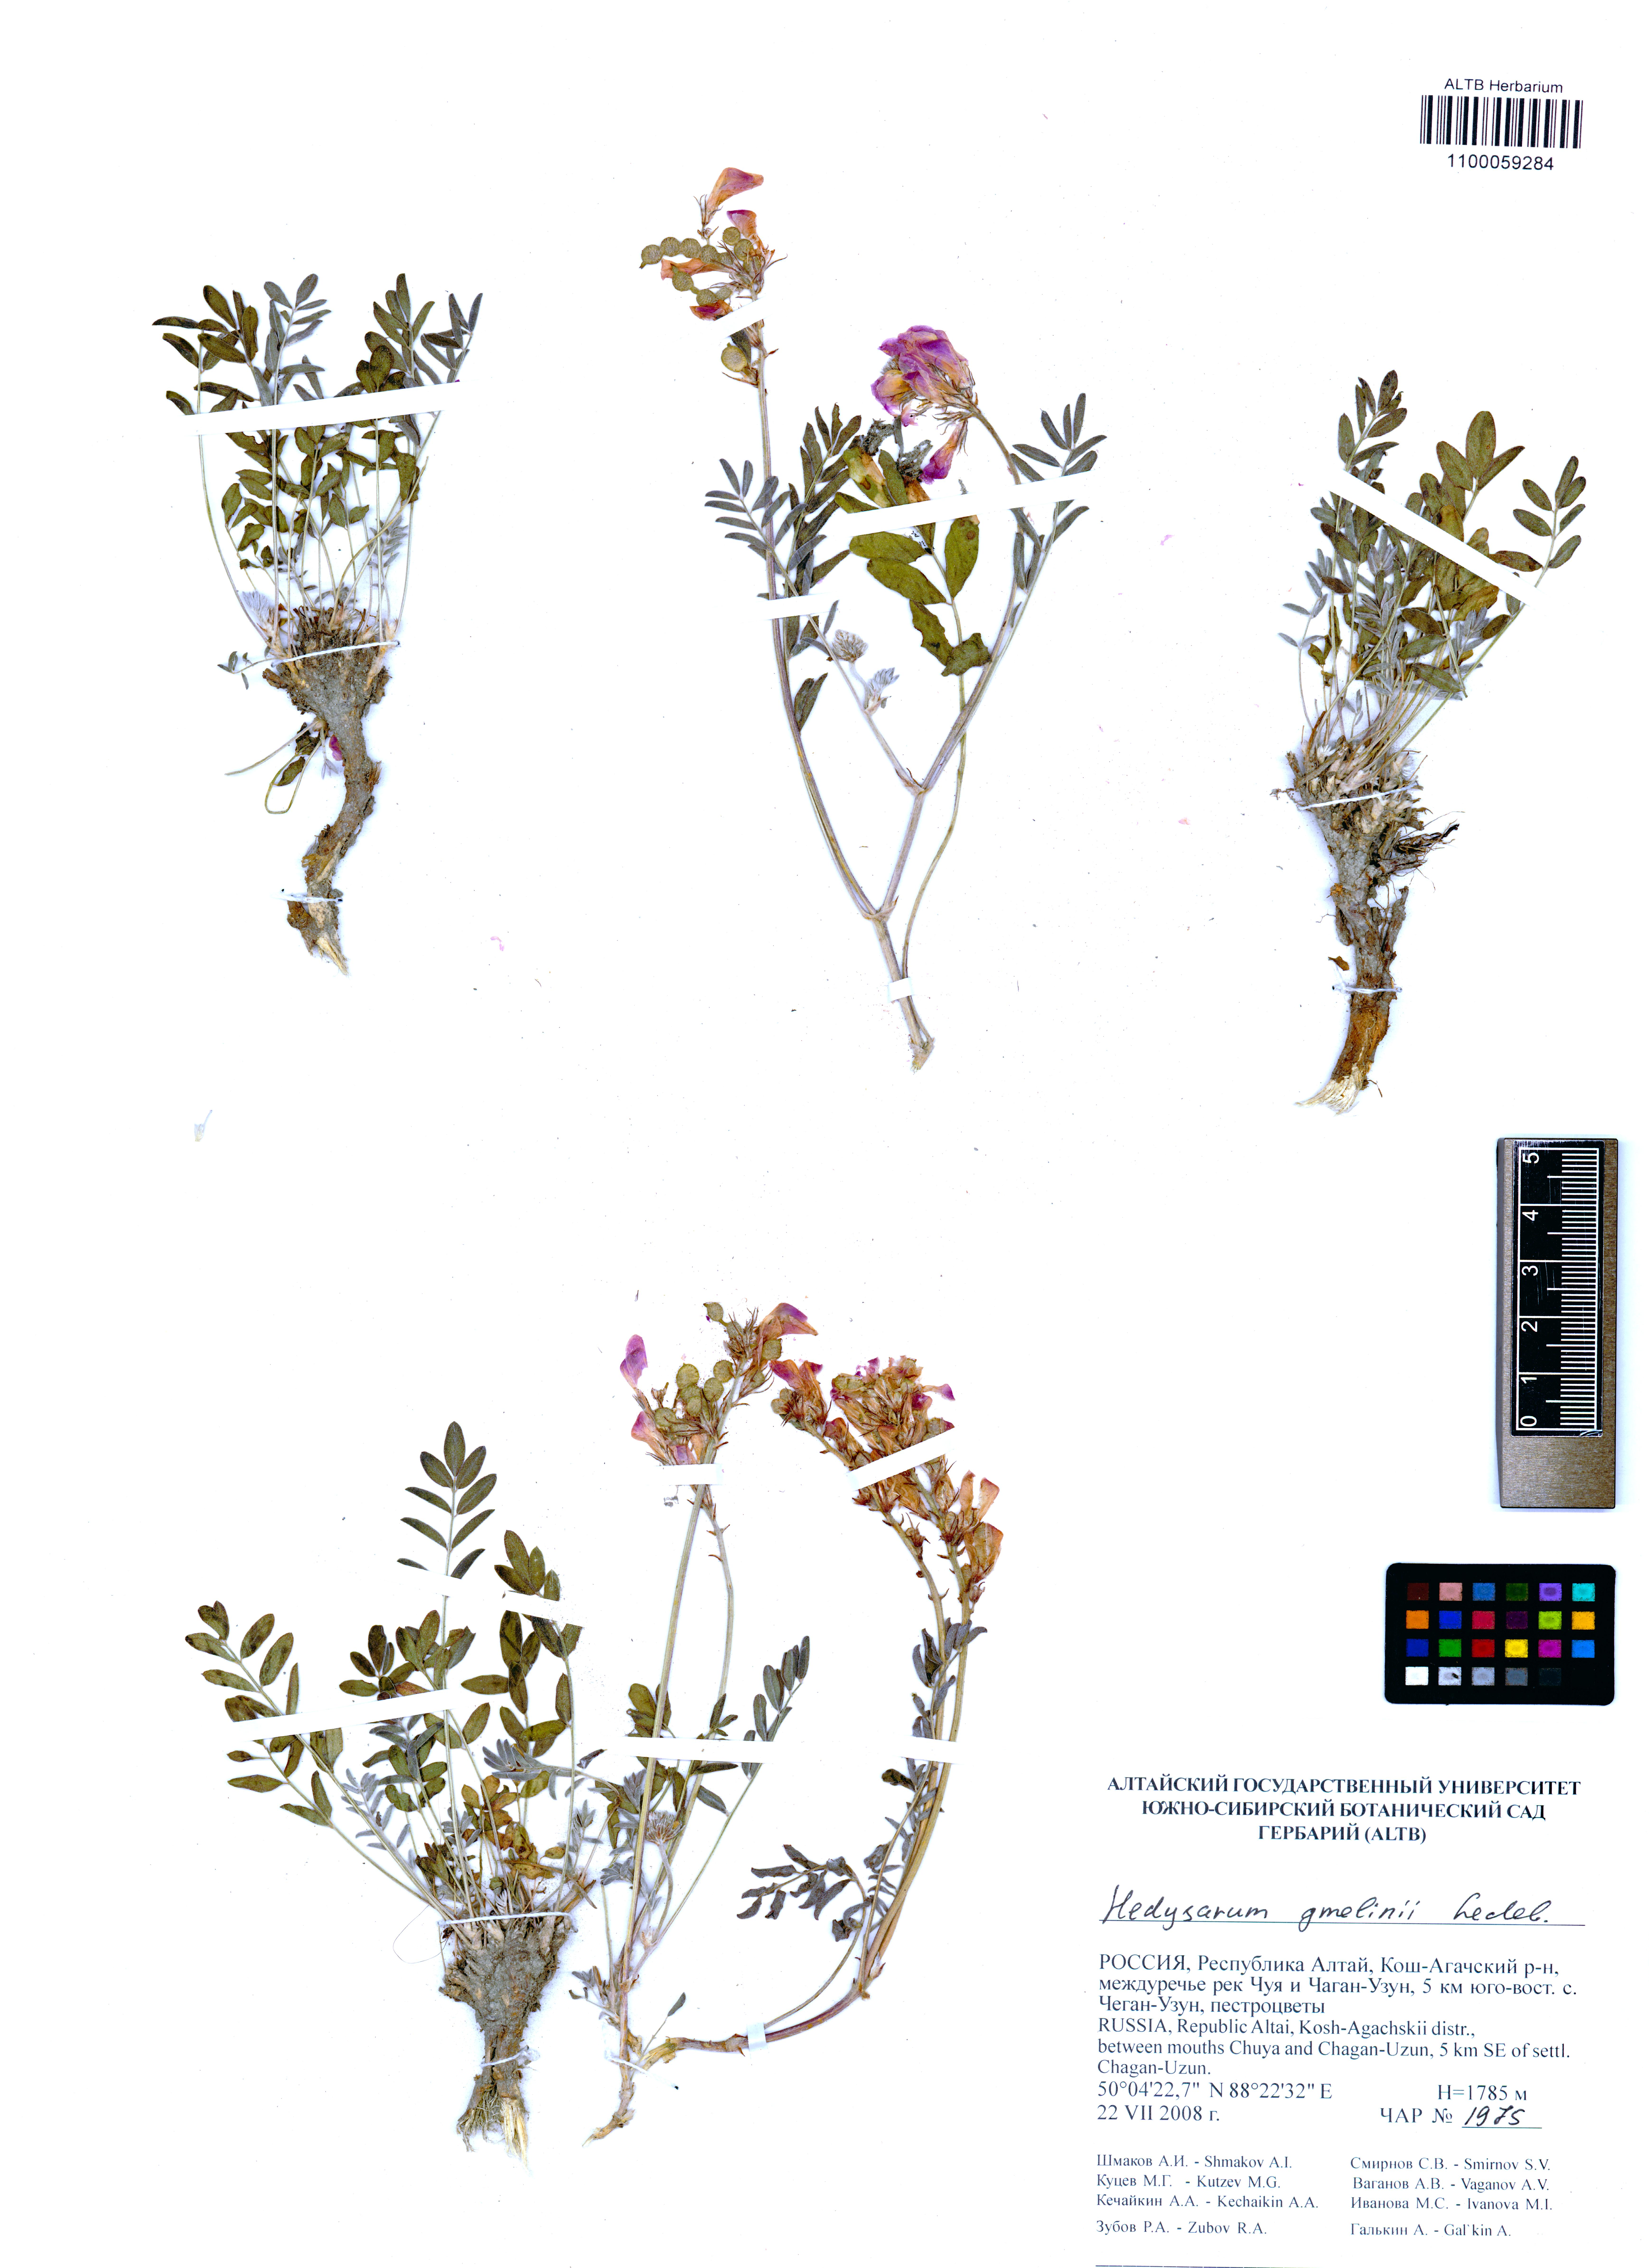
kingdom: Plantae
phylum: Tracheophyta
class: Magnoliopsida
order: Fabales
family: Fabaceae
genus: Hedysarum
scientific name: Hedysarum gmelinii
